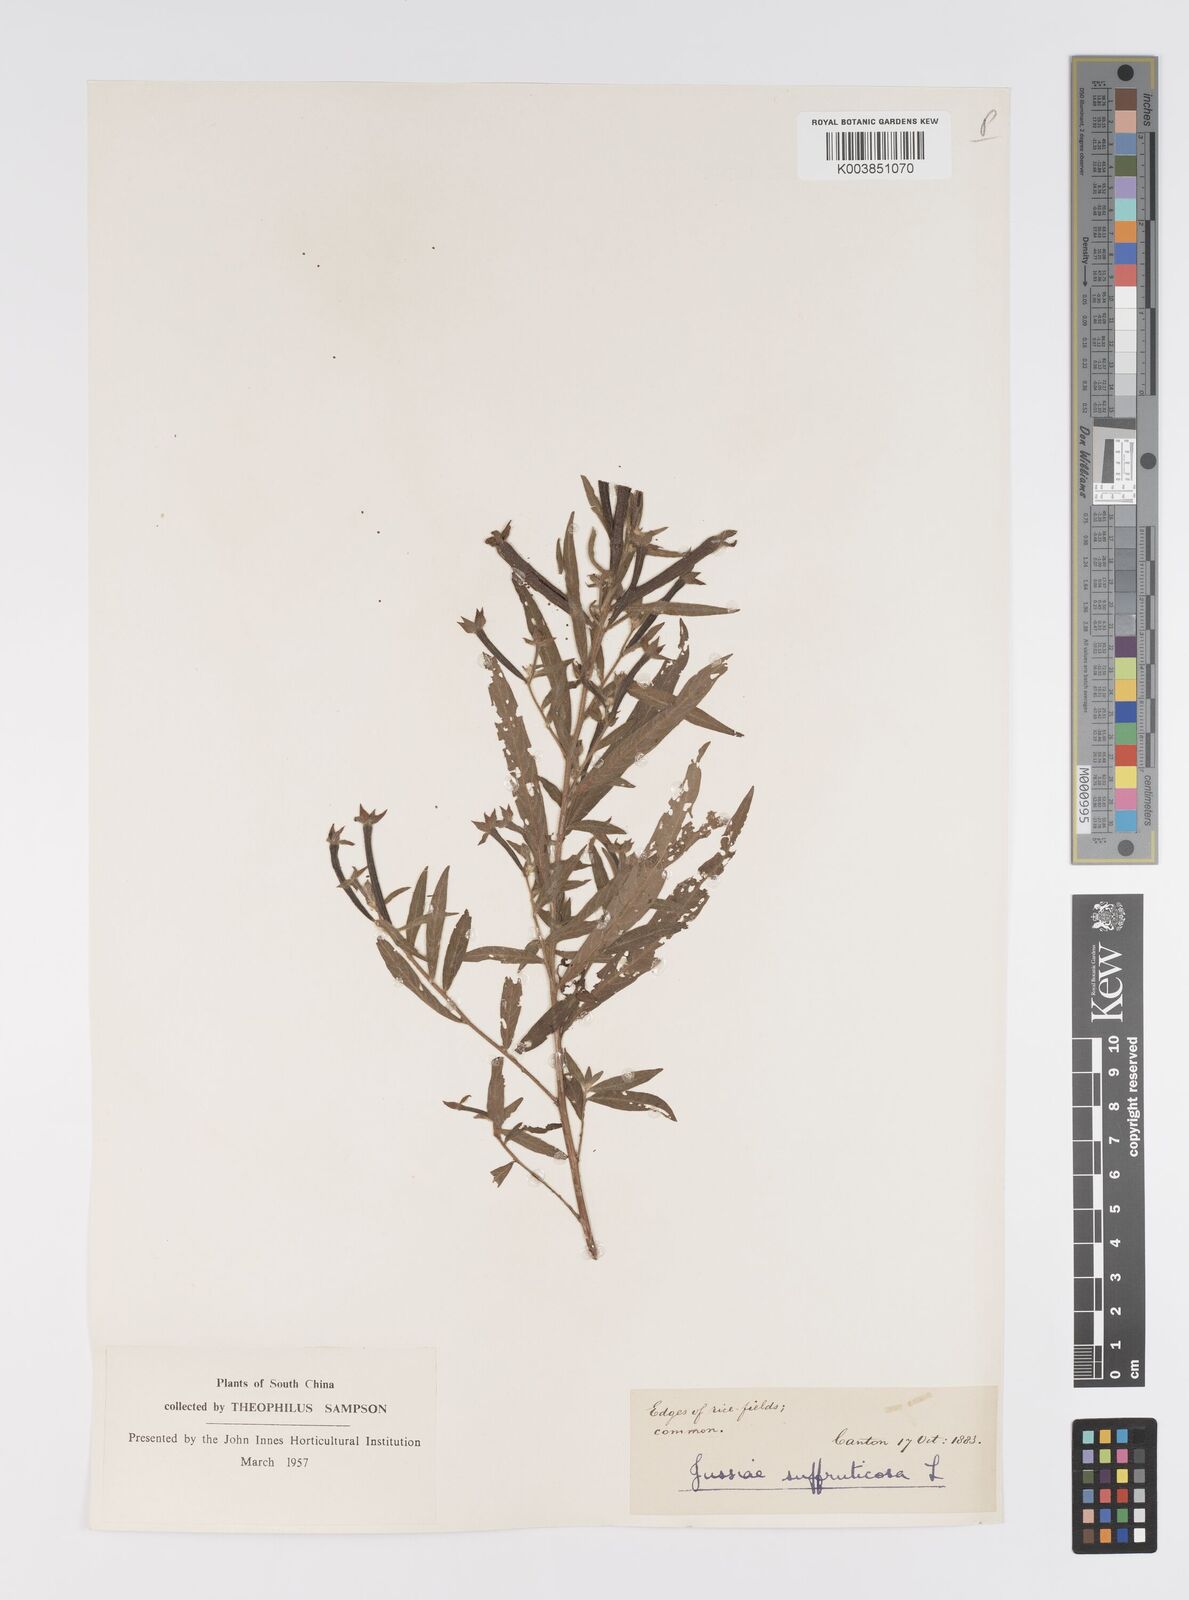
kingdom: Plantae
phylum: Tracheophyta
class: Magnoliopsida
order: Myrtales
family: Onagraceae
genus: Ludwigia
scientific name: Ludwigia octovalvis
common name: Water-primrose
